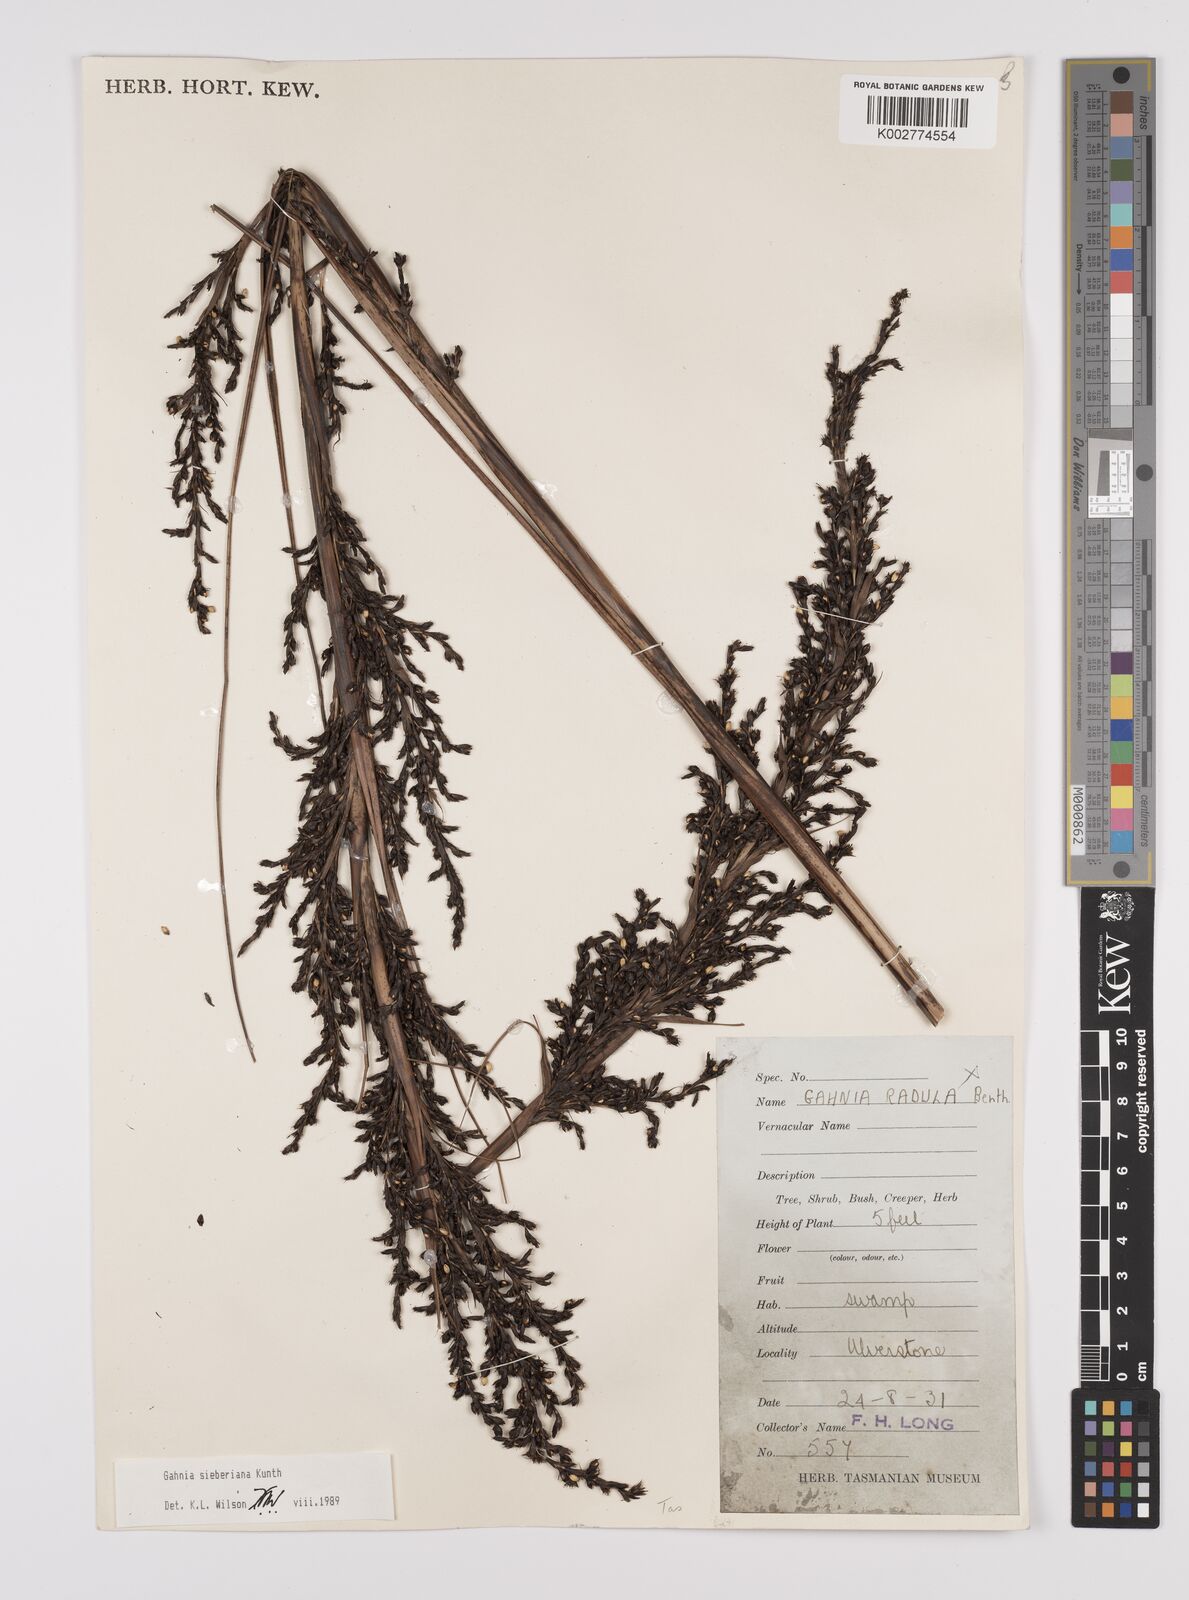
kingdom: Plantae
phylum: Tracheophyta
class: Liliopsida
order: Poales
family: Cyperaceae
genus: Gahnia
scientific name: Gahnia sieberiana
